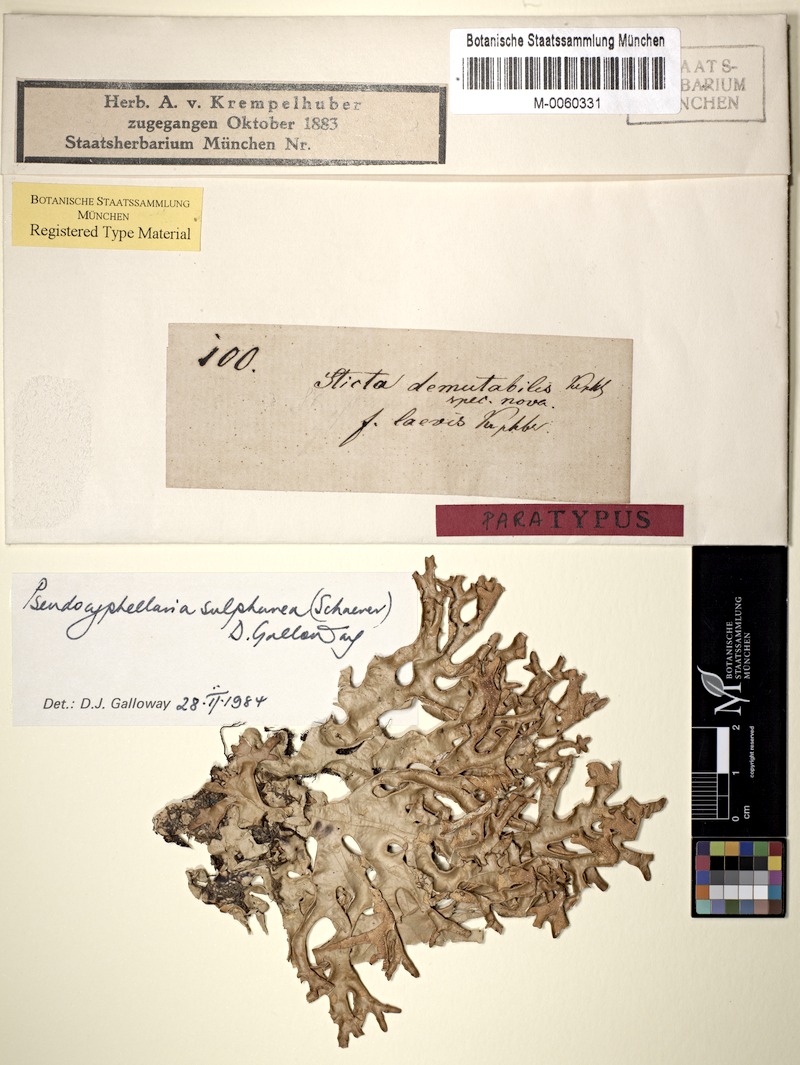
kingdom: Fungi
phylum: Ascomycota
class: Lecanoromycetes
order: Peltigerales
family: Lobariaceae
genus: Pseudocyphellaria
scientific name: Pseudocyphellaria sulphurea
